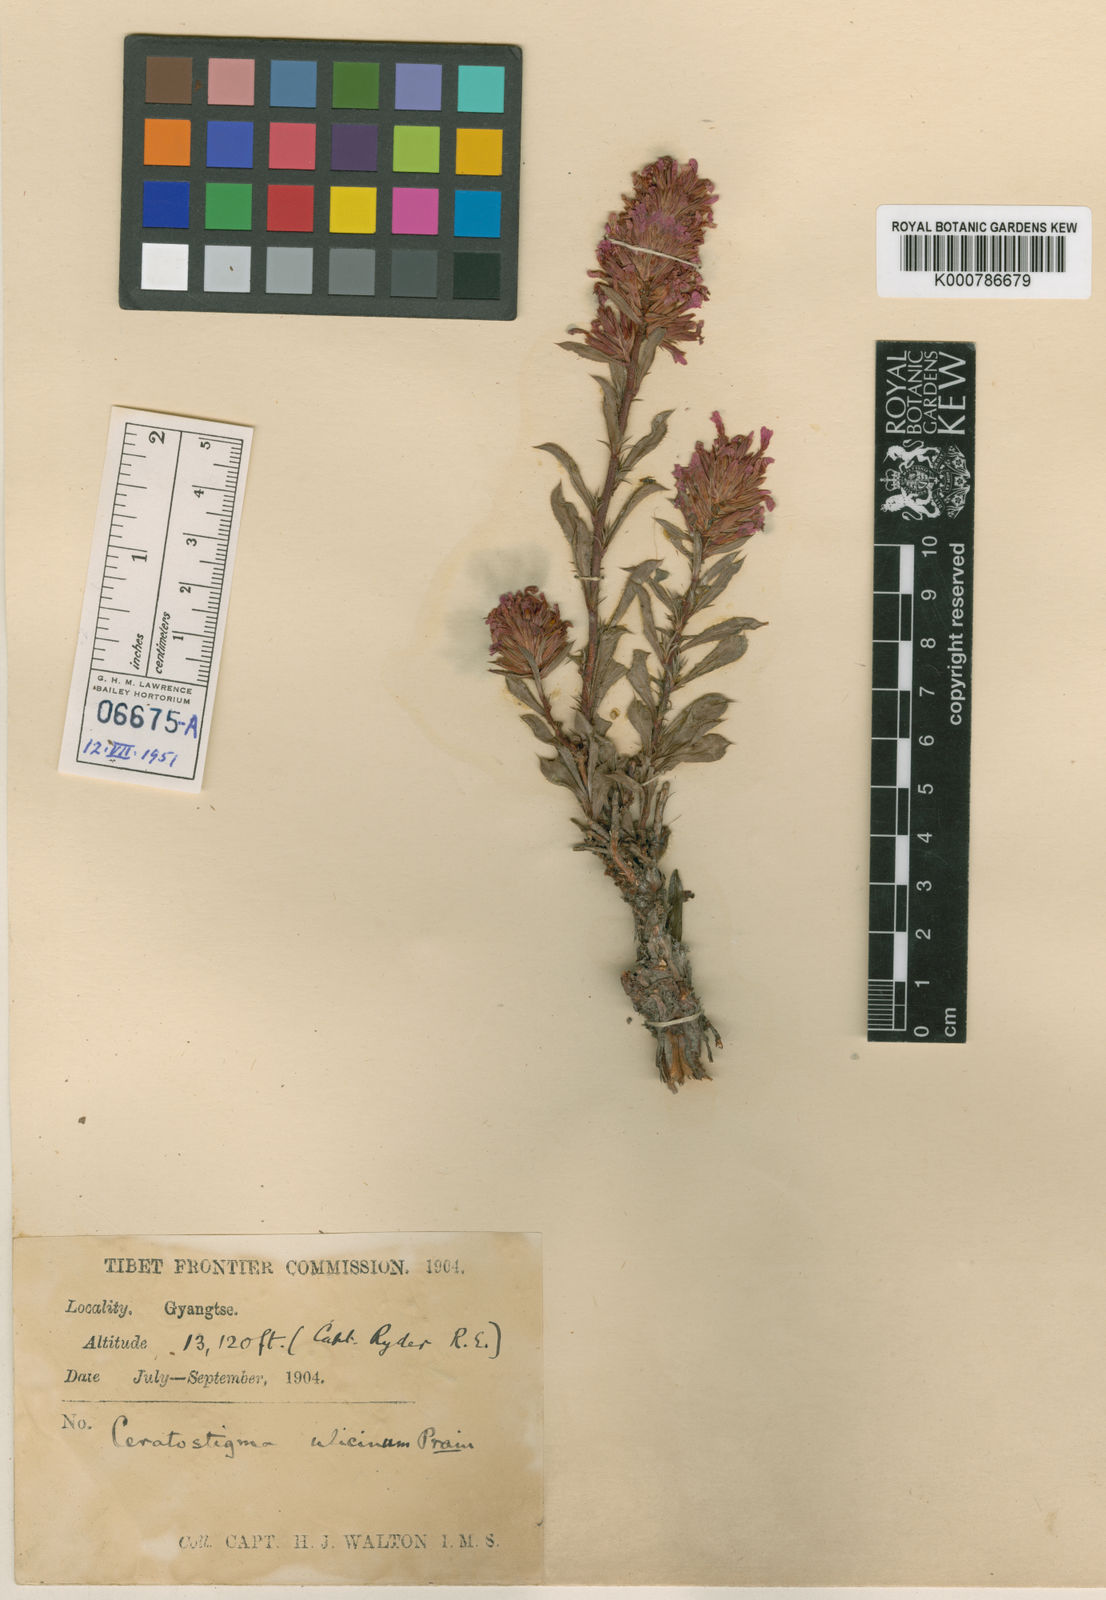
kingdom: Plantae
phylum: Tracheophyta
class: Magnoliopsida
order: Caryophyllales
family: Plumbaginaceae
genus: Ceratostigma
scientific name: Ceratostigma ulicinum
